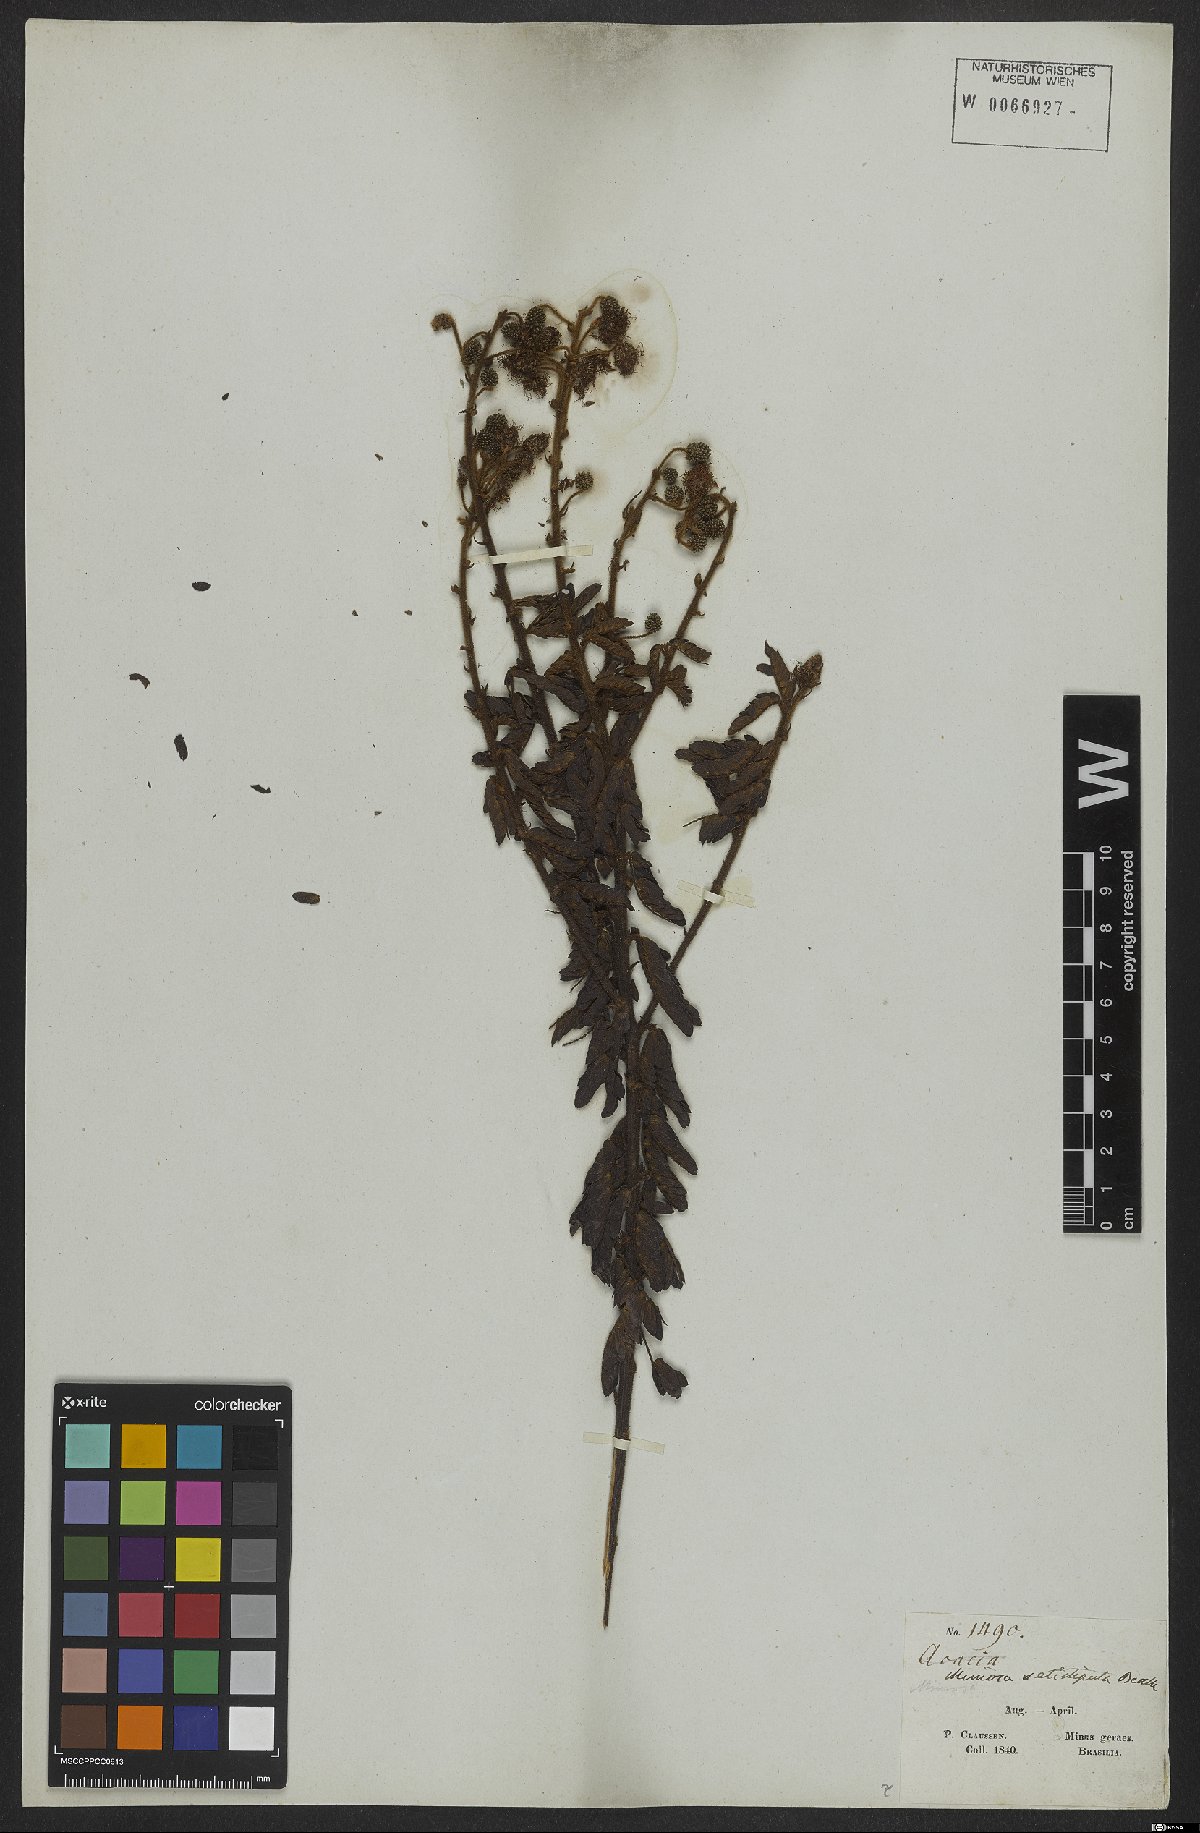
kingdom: Plantae
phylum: Tracheophyta
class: Magnoliopsida
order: Fabales
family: Fabaceae
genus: Mimosa
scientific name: Mimosa riedelii
